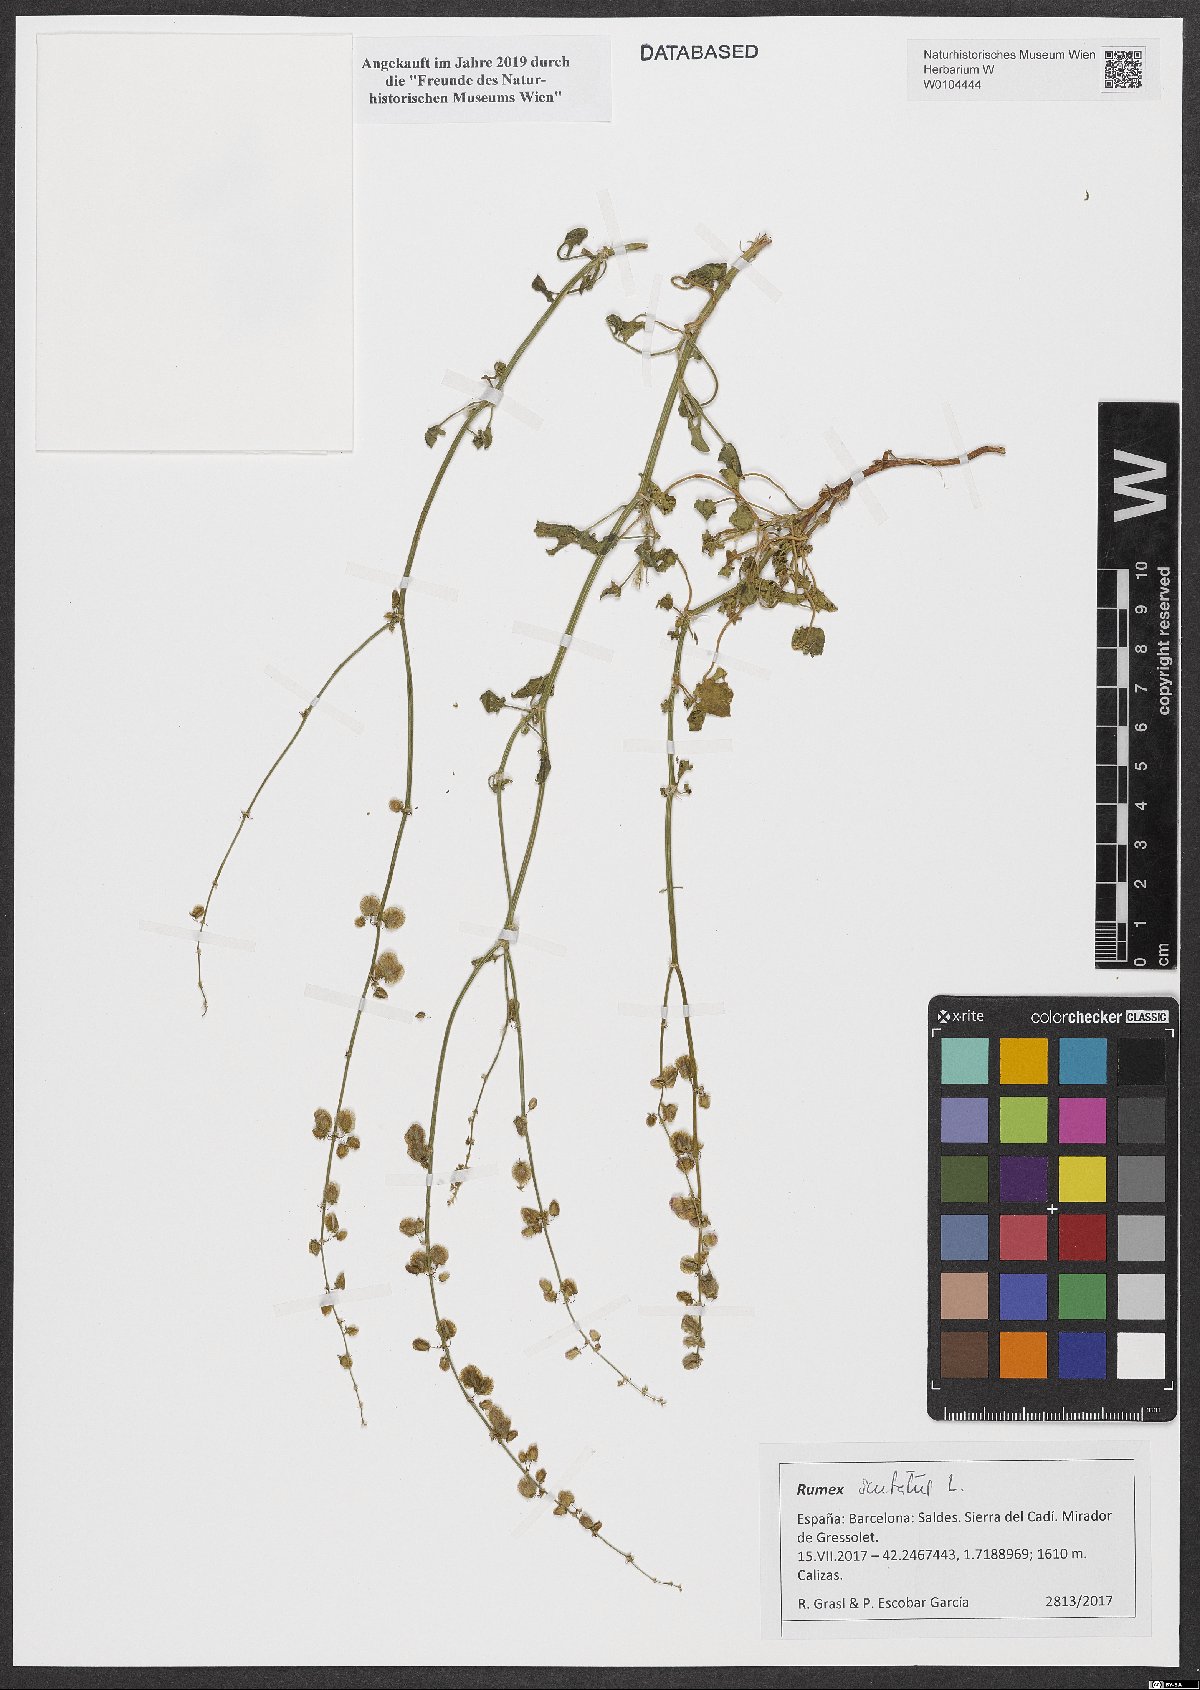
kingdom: Plantae
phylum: Tracheophyta
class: Magnoliopsida
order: Caryophyllales
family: Polygonaceae
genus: Rumex
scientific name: Rumex scutatus
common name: French sorrel
